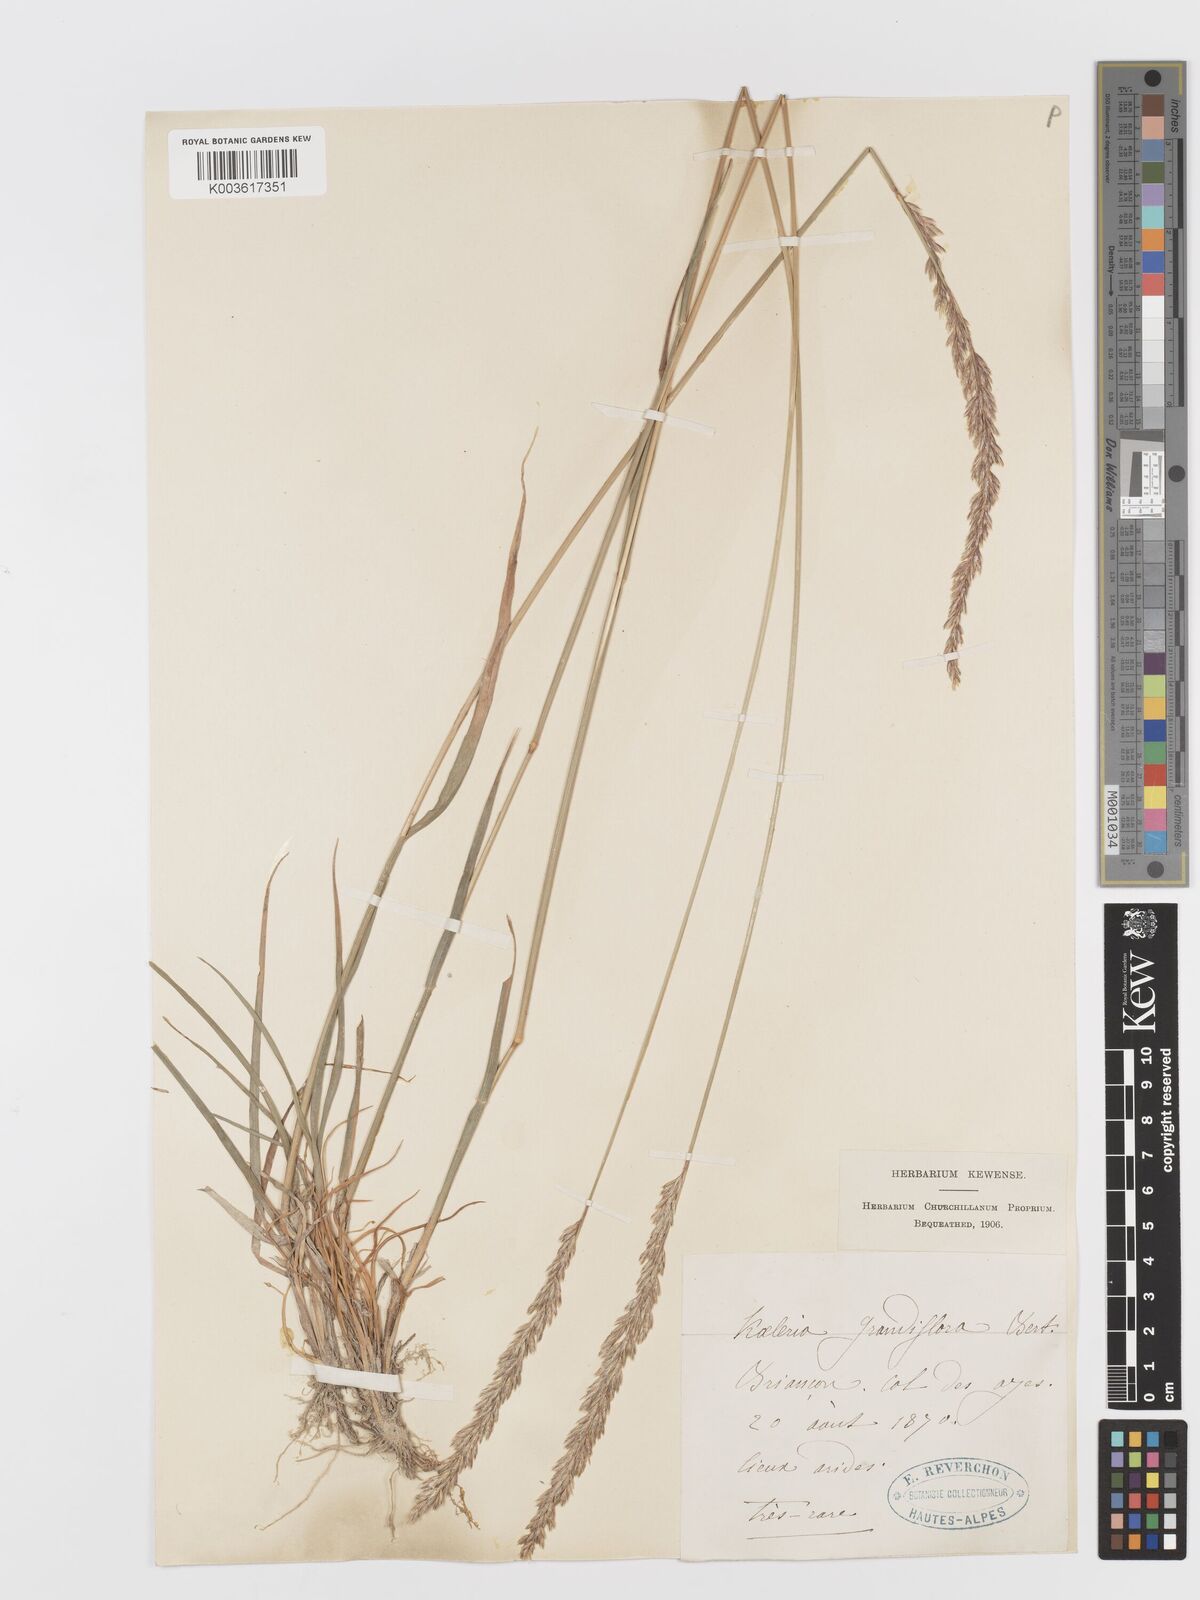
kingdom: Plantae
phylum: Tracheophyta
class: Liliopsida
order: Poales
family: Poaceae
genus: Koeleria
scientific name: Koeleria splendens
